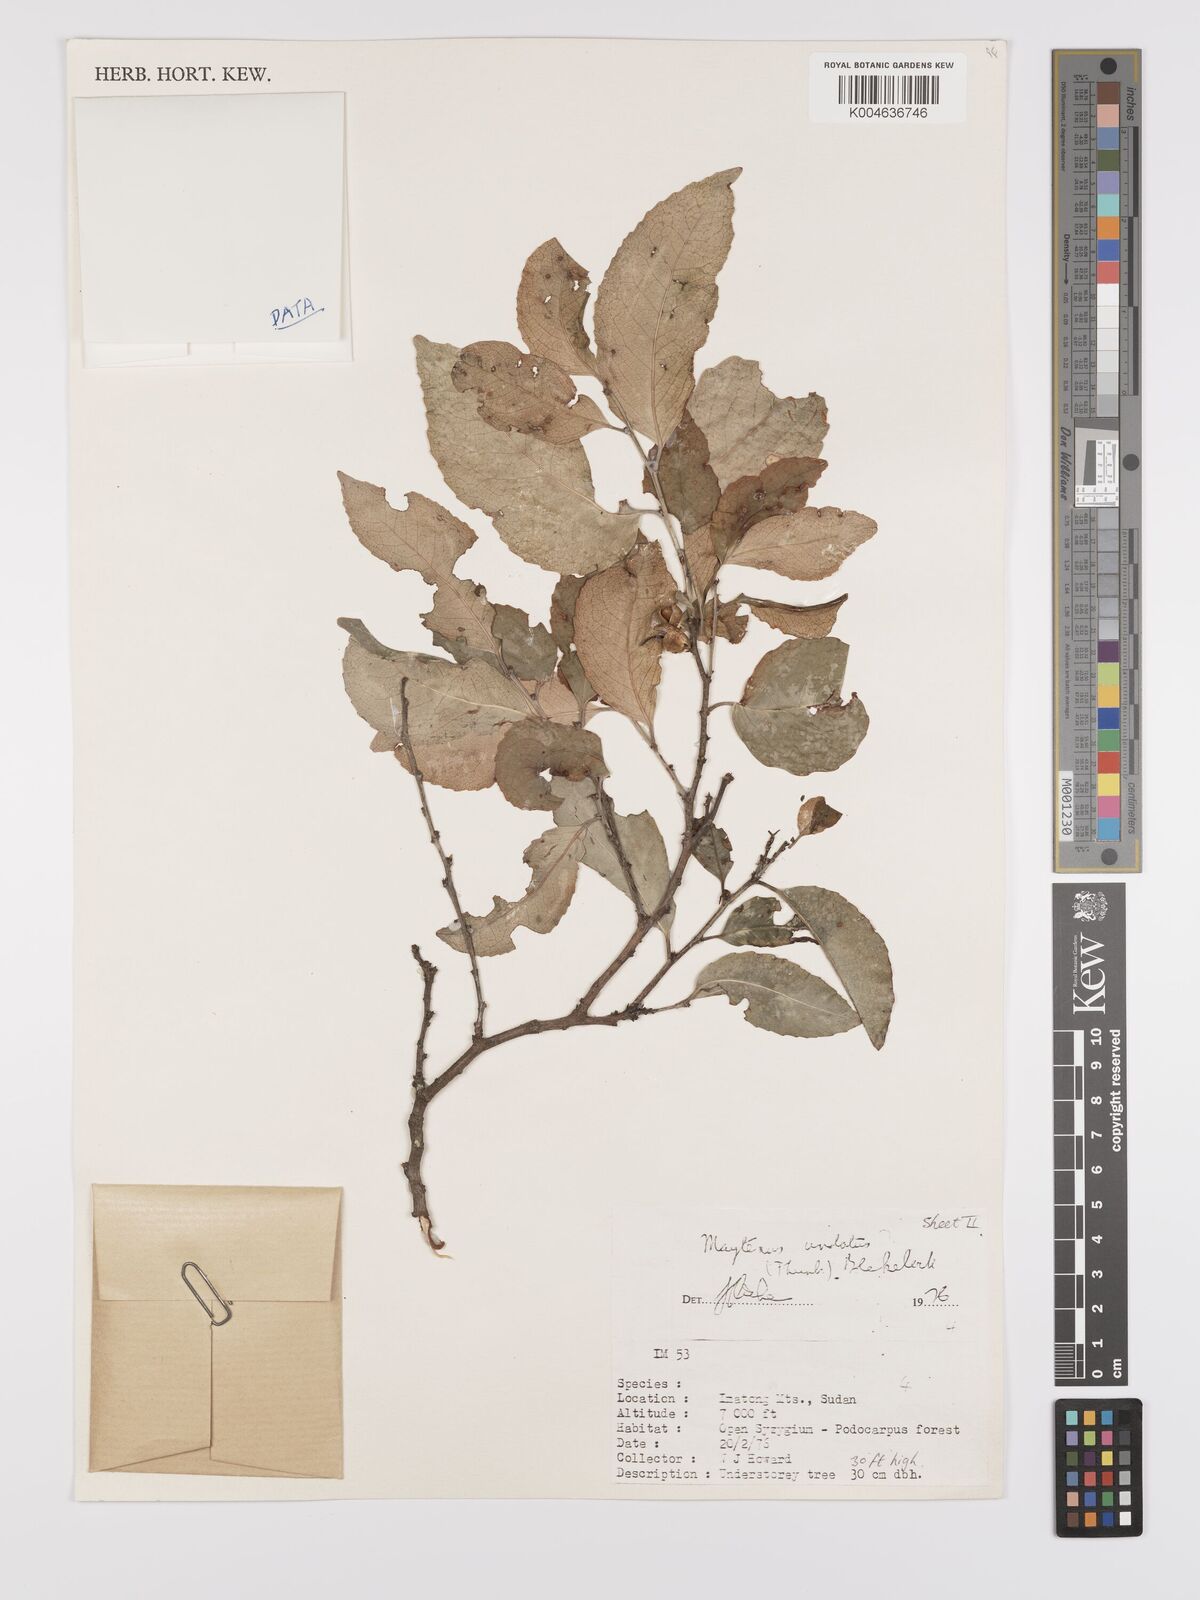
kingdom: Plantae
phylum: Tracheophyta
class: Magnoliopsida
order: Celastrales
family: Celastraceae
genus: Gymnosporia
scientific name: Gymnosporia undata
